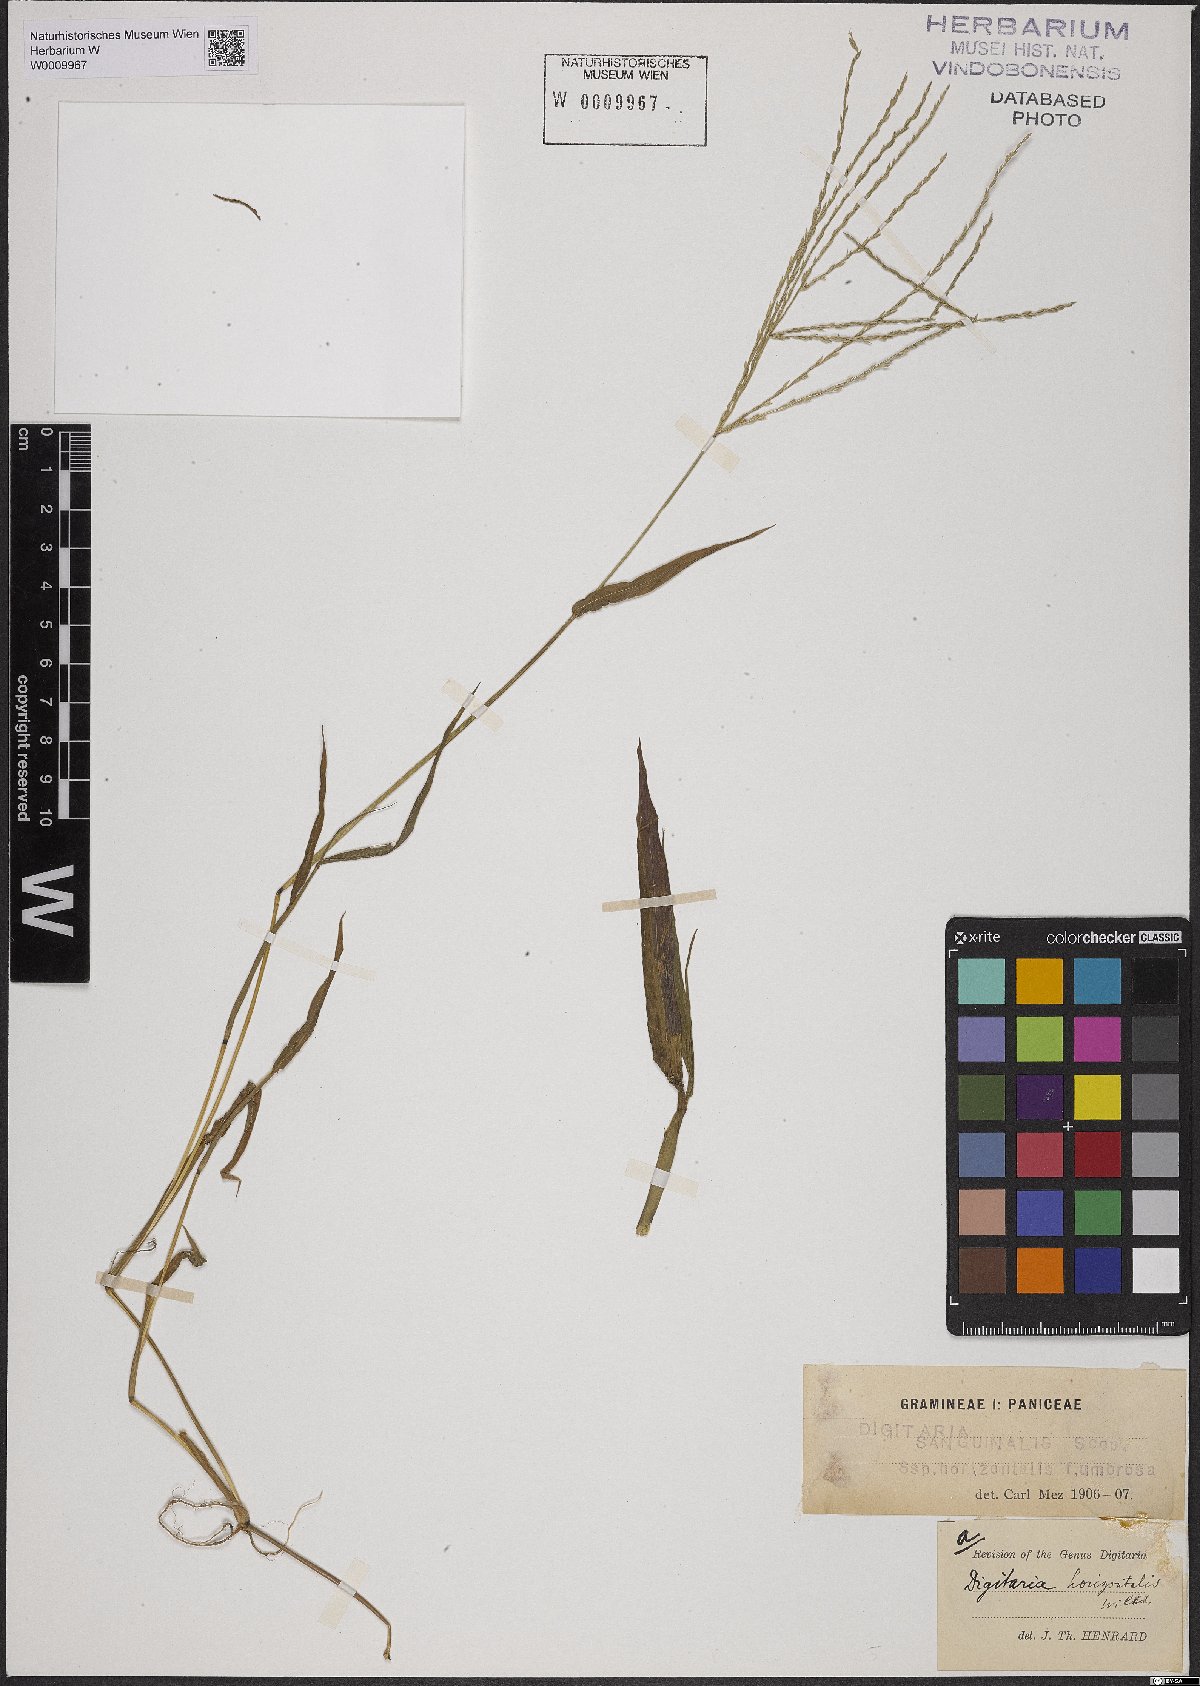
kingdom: Plantae
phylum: Tracheophyta
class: Liliopsida
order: Poales
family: Poaceae
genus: Digitaria
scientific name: Digitaria horizontalis
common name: Jamaican crabgrass
